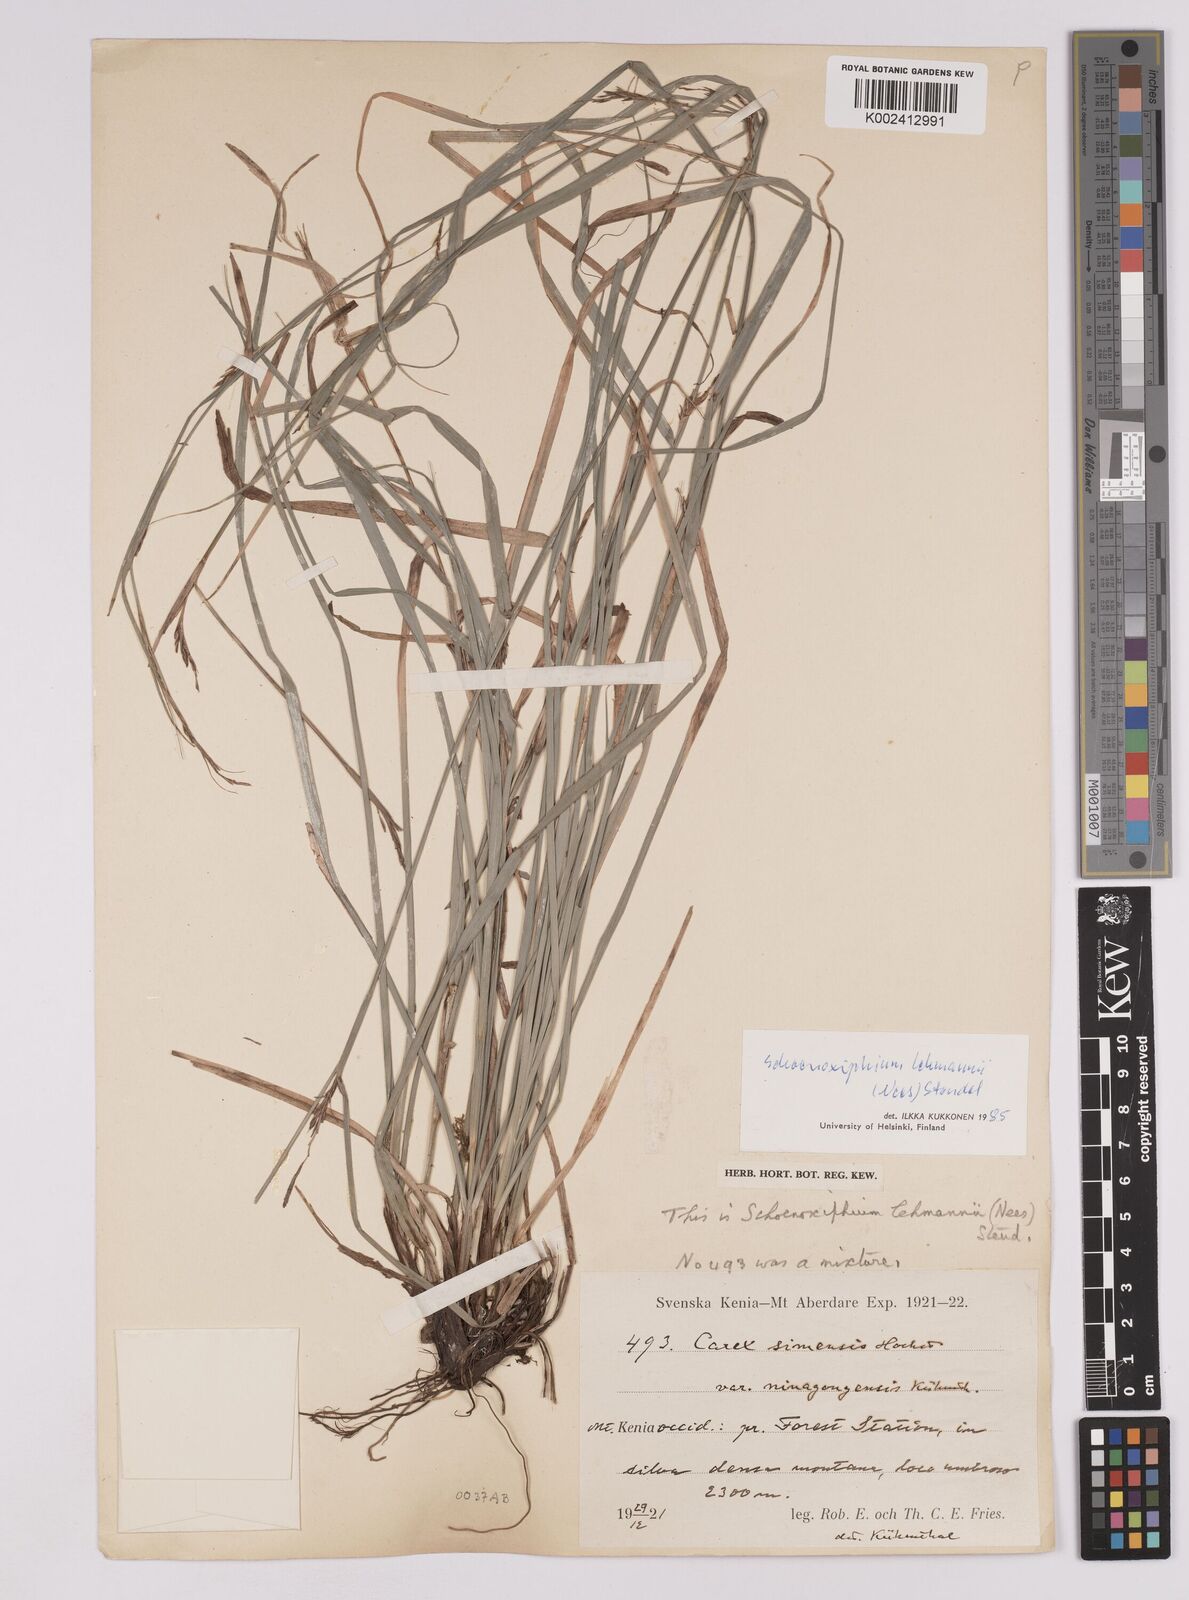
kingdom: Plantae
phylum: Tracheophyta
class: Liliopsida
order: Poales
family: Cyperaceae
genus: Carex
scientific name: Carex uhligii
